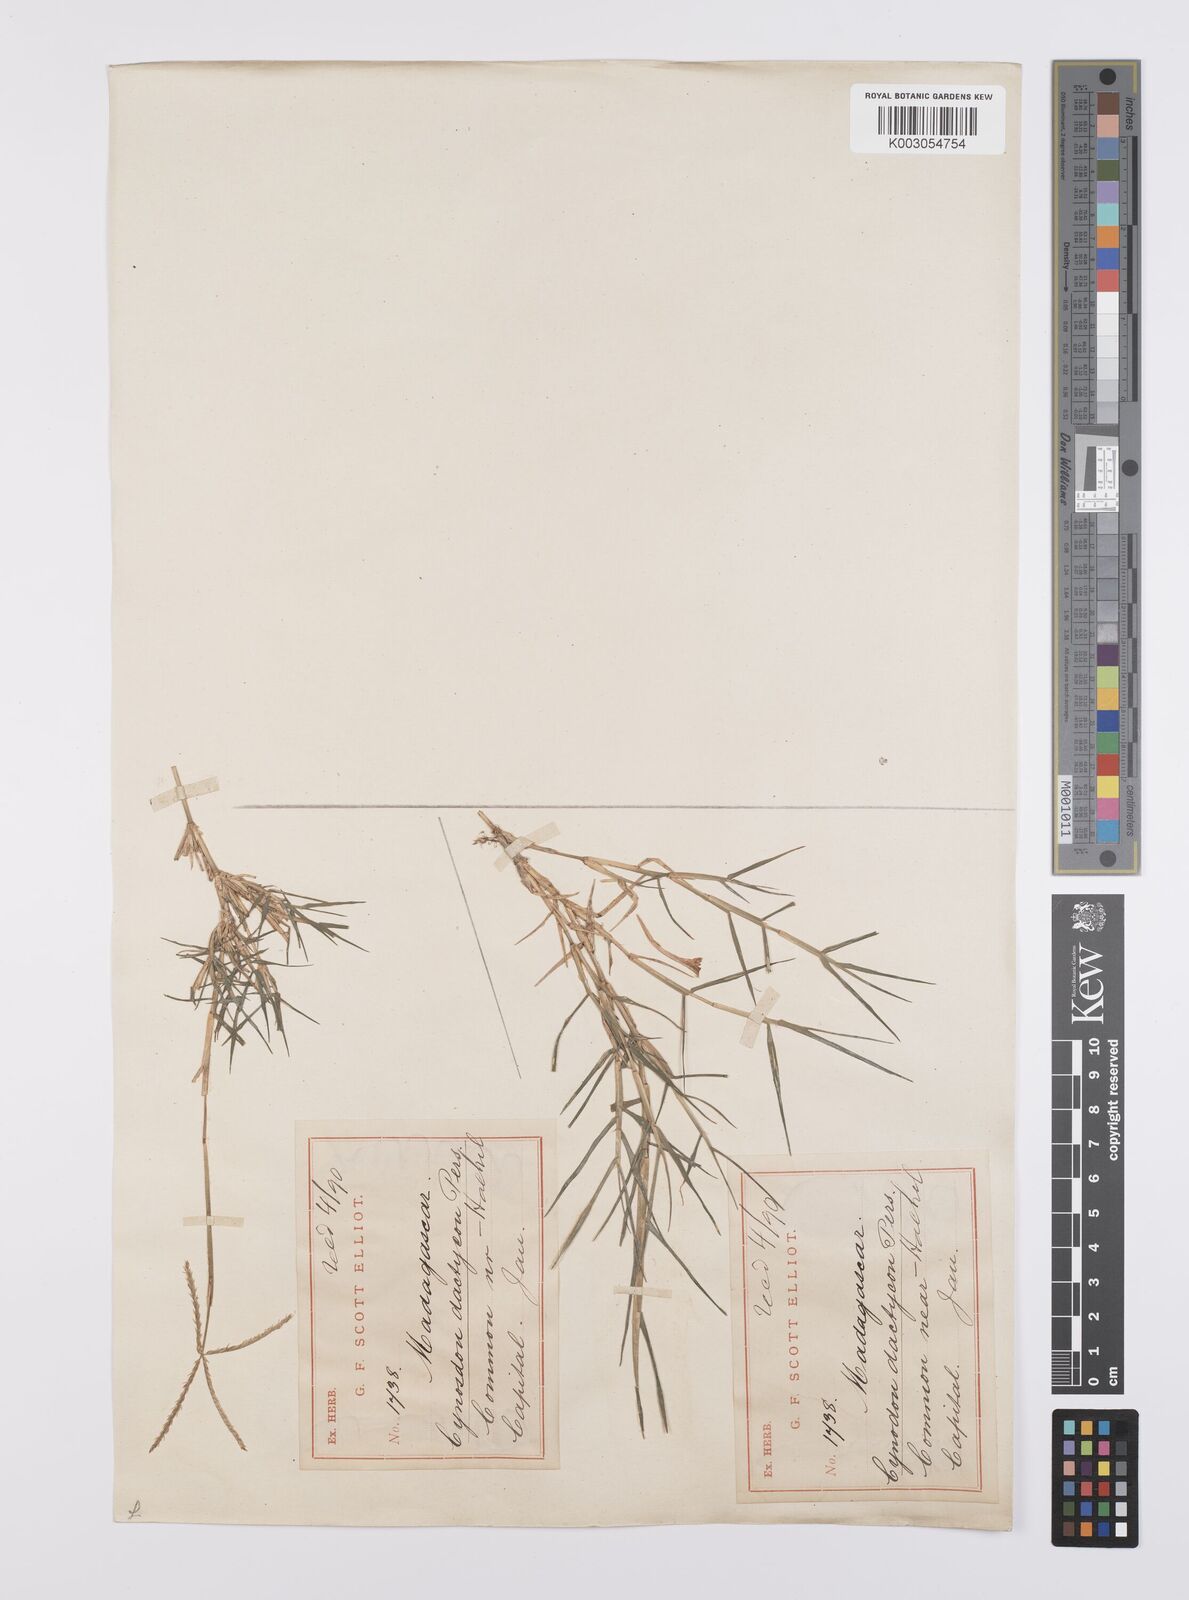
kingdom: Plantae
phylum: Tracheophyta
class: Liliopsida
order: Poales
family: Poaceae
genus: Cynodon
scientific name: Cynodon dactylon
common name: Bermuda grass
